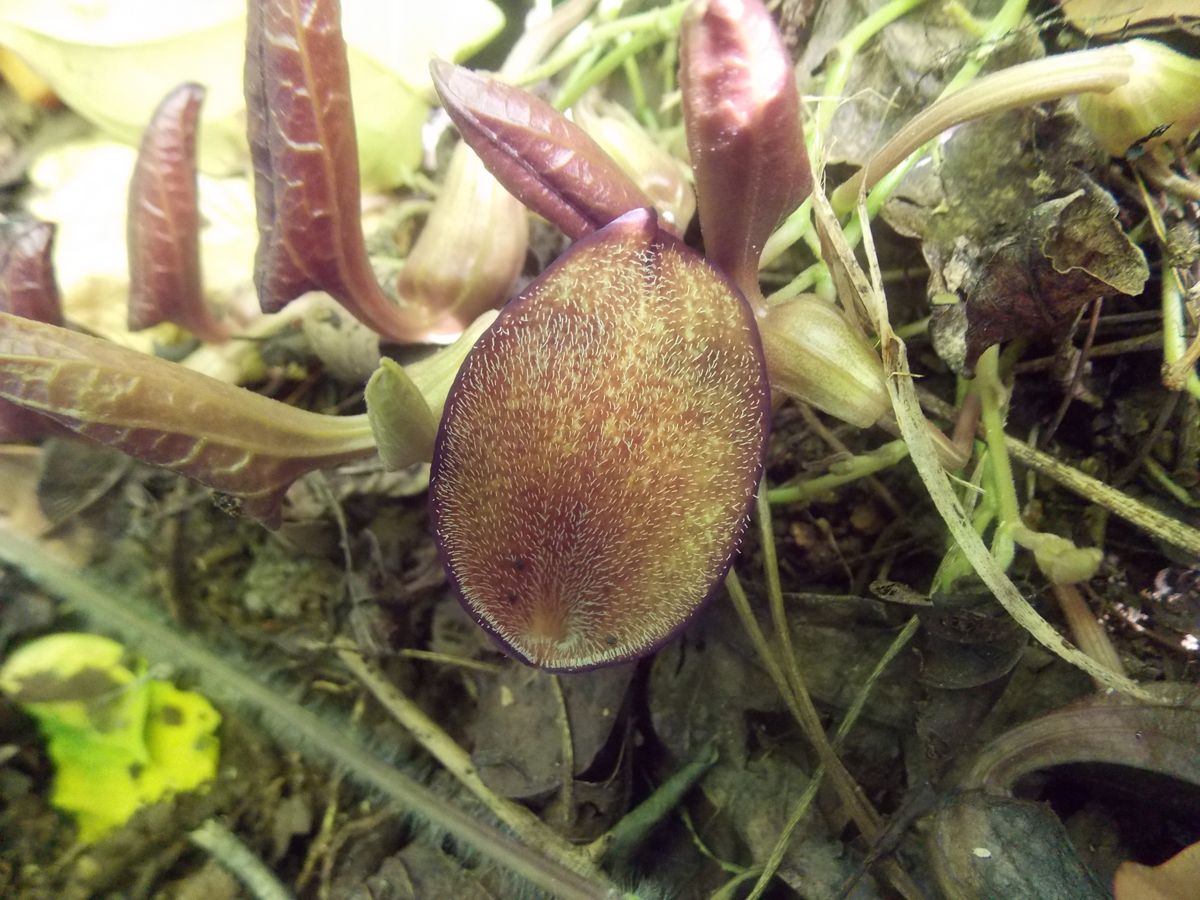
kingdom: Plantae
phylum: Tracheophyta
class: Magnoliopsida
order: Piperales
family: Aristolochiaceae
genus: Aristolochia
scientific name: Aristolochia maxima
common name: Florida dutchman's pipe
